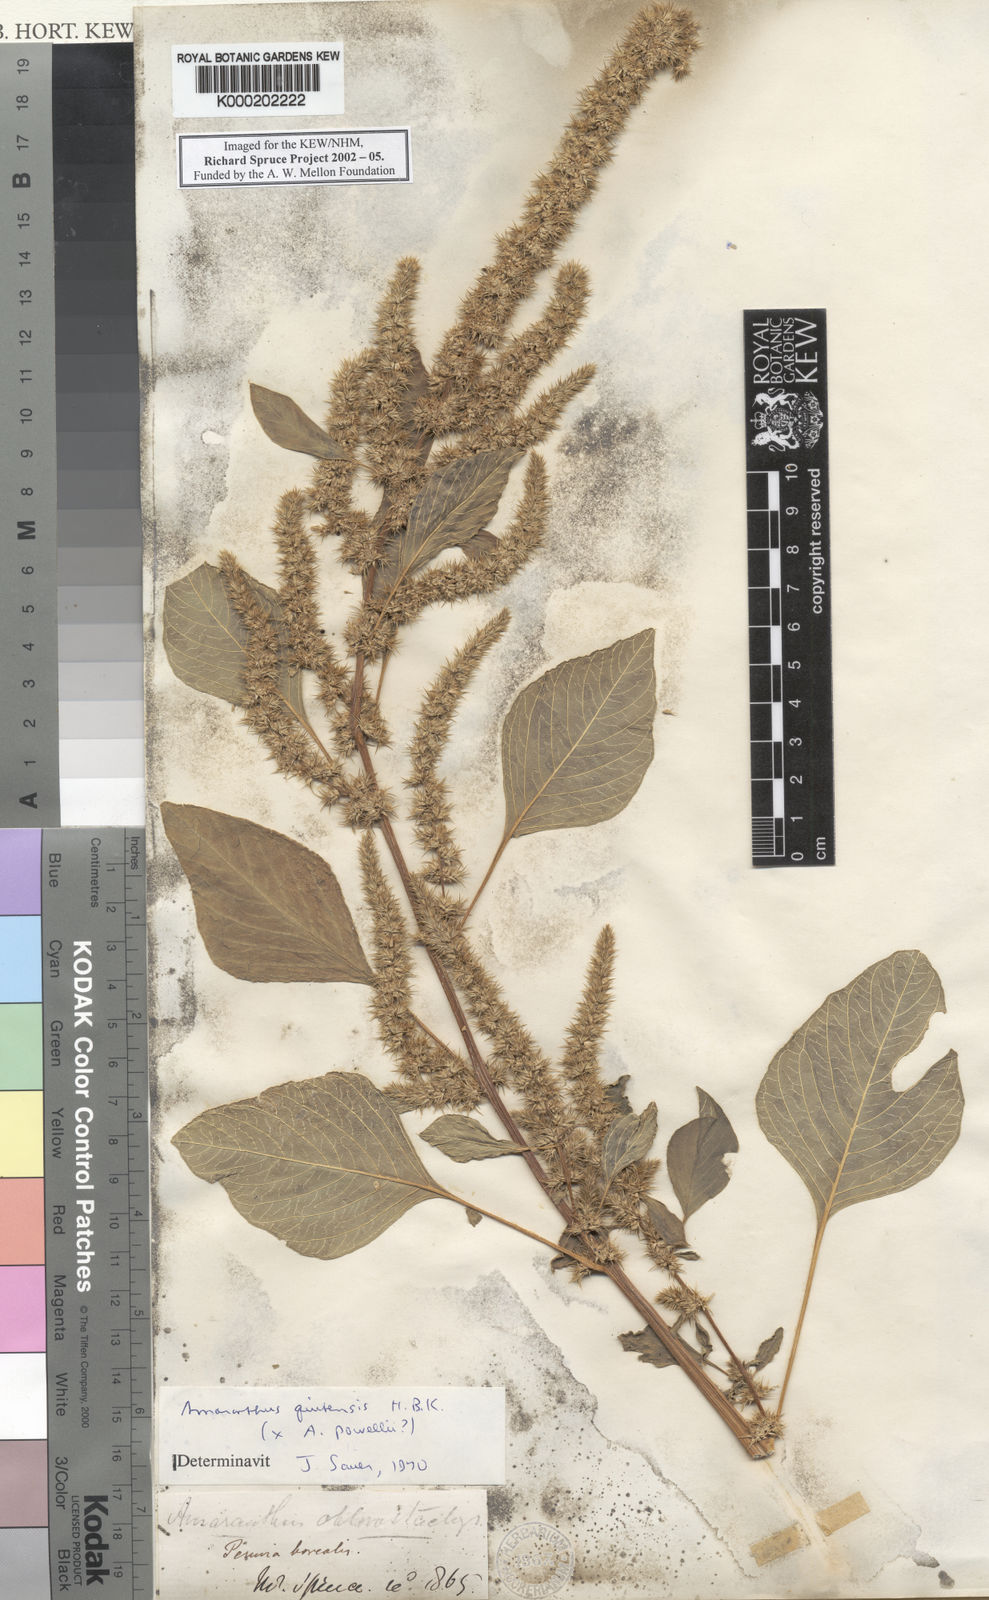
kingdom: Plantae
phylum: Tracheophyta
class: Magnoliopsida
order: Caryophyllales
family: Amaranthaceae
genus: Amaranthus
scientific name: Amaranthus quitensis
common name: Mucronate amaranth
